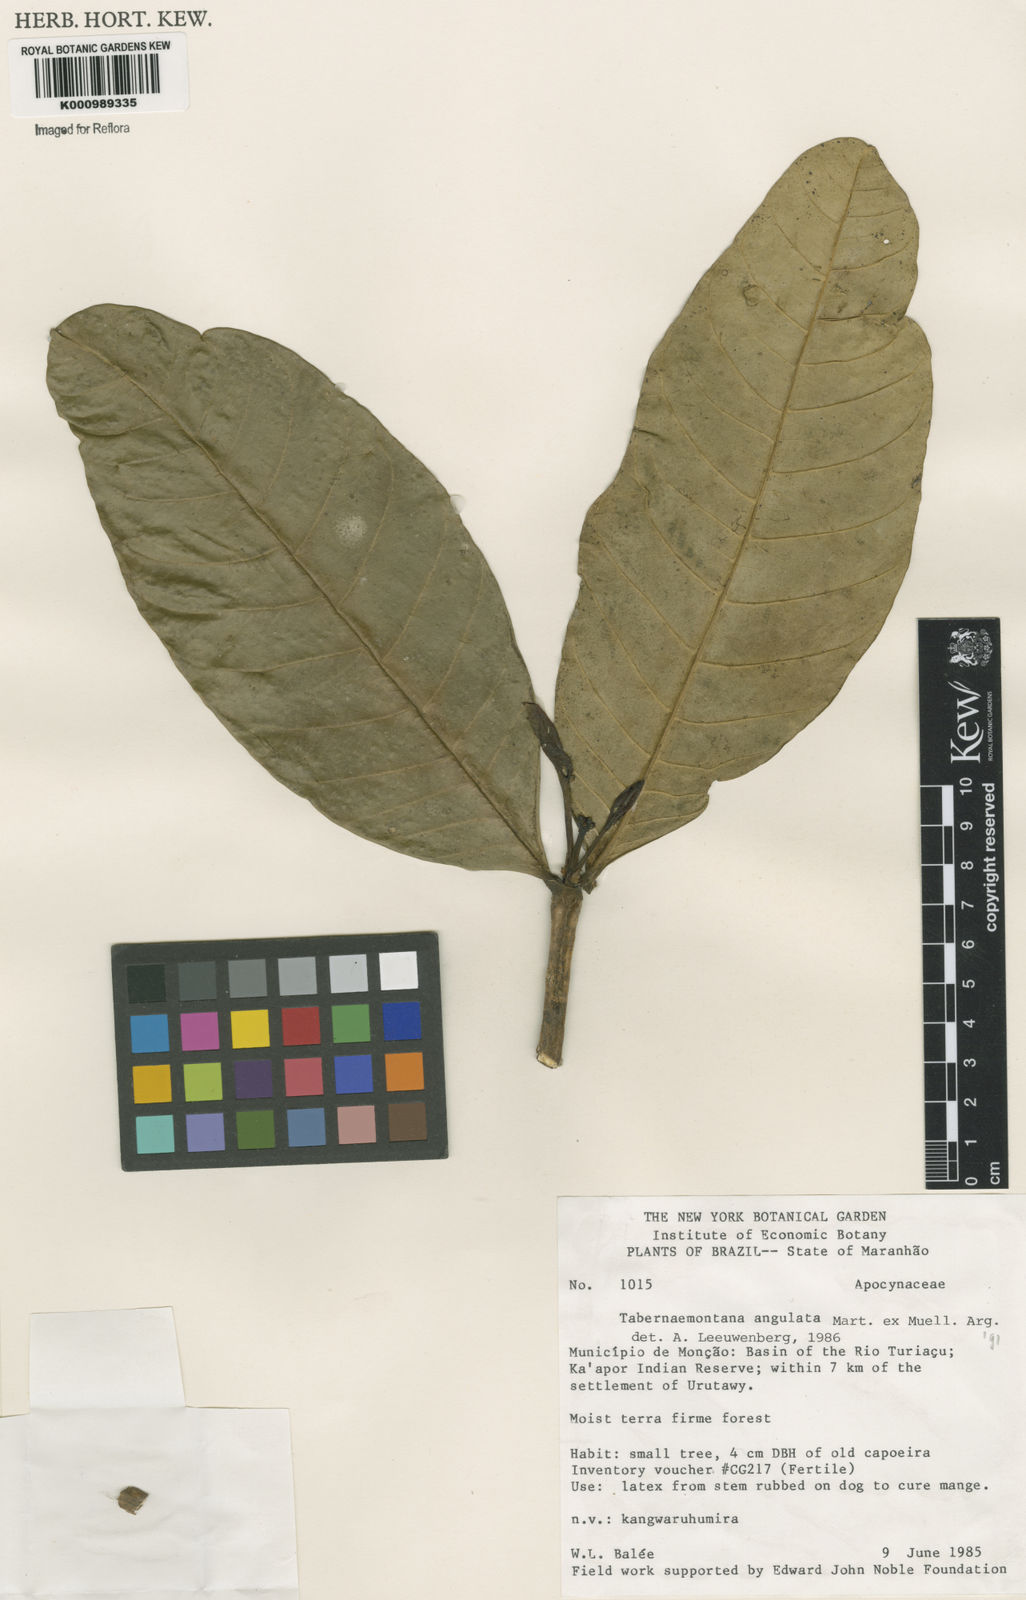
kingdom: Plantae
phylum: Tracheophyta
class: Magnoliopsida
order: Gentianales
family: Apocynaceae
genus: Tabernaemontana
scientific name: Tabernaemontana
